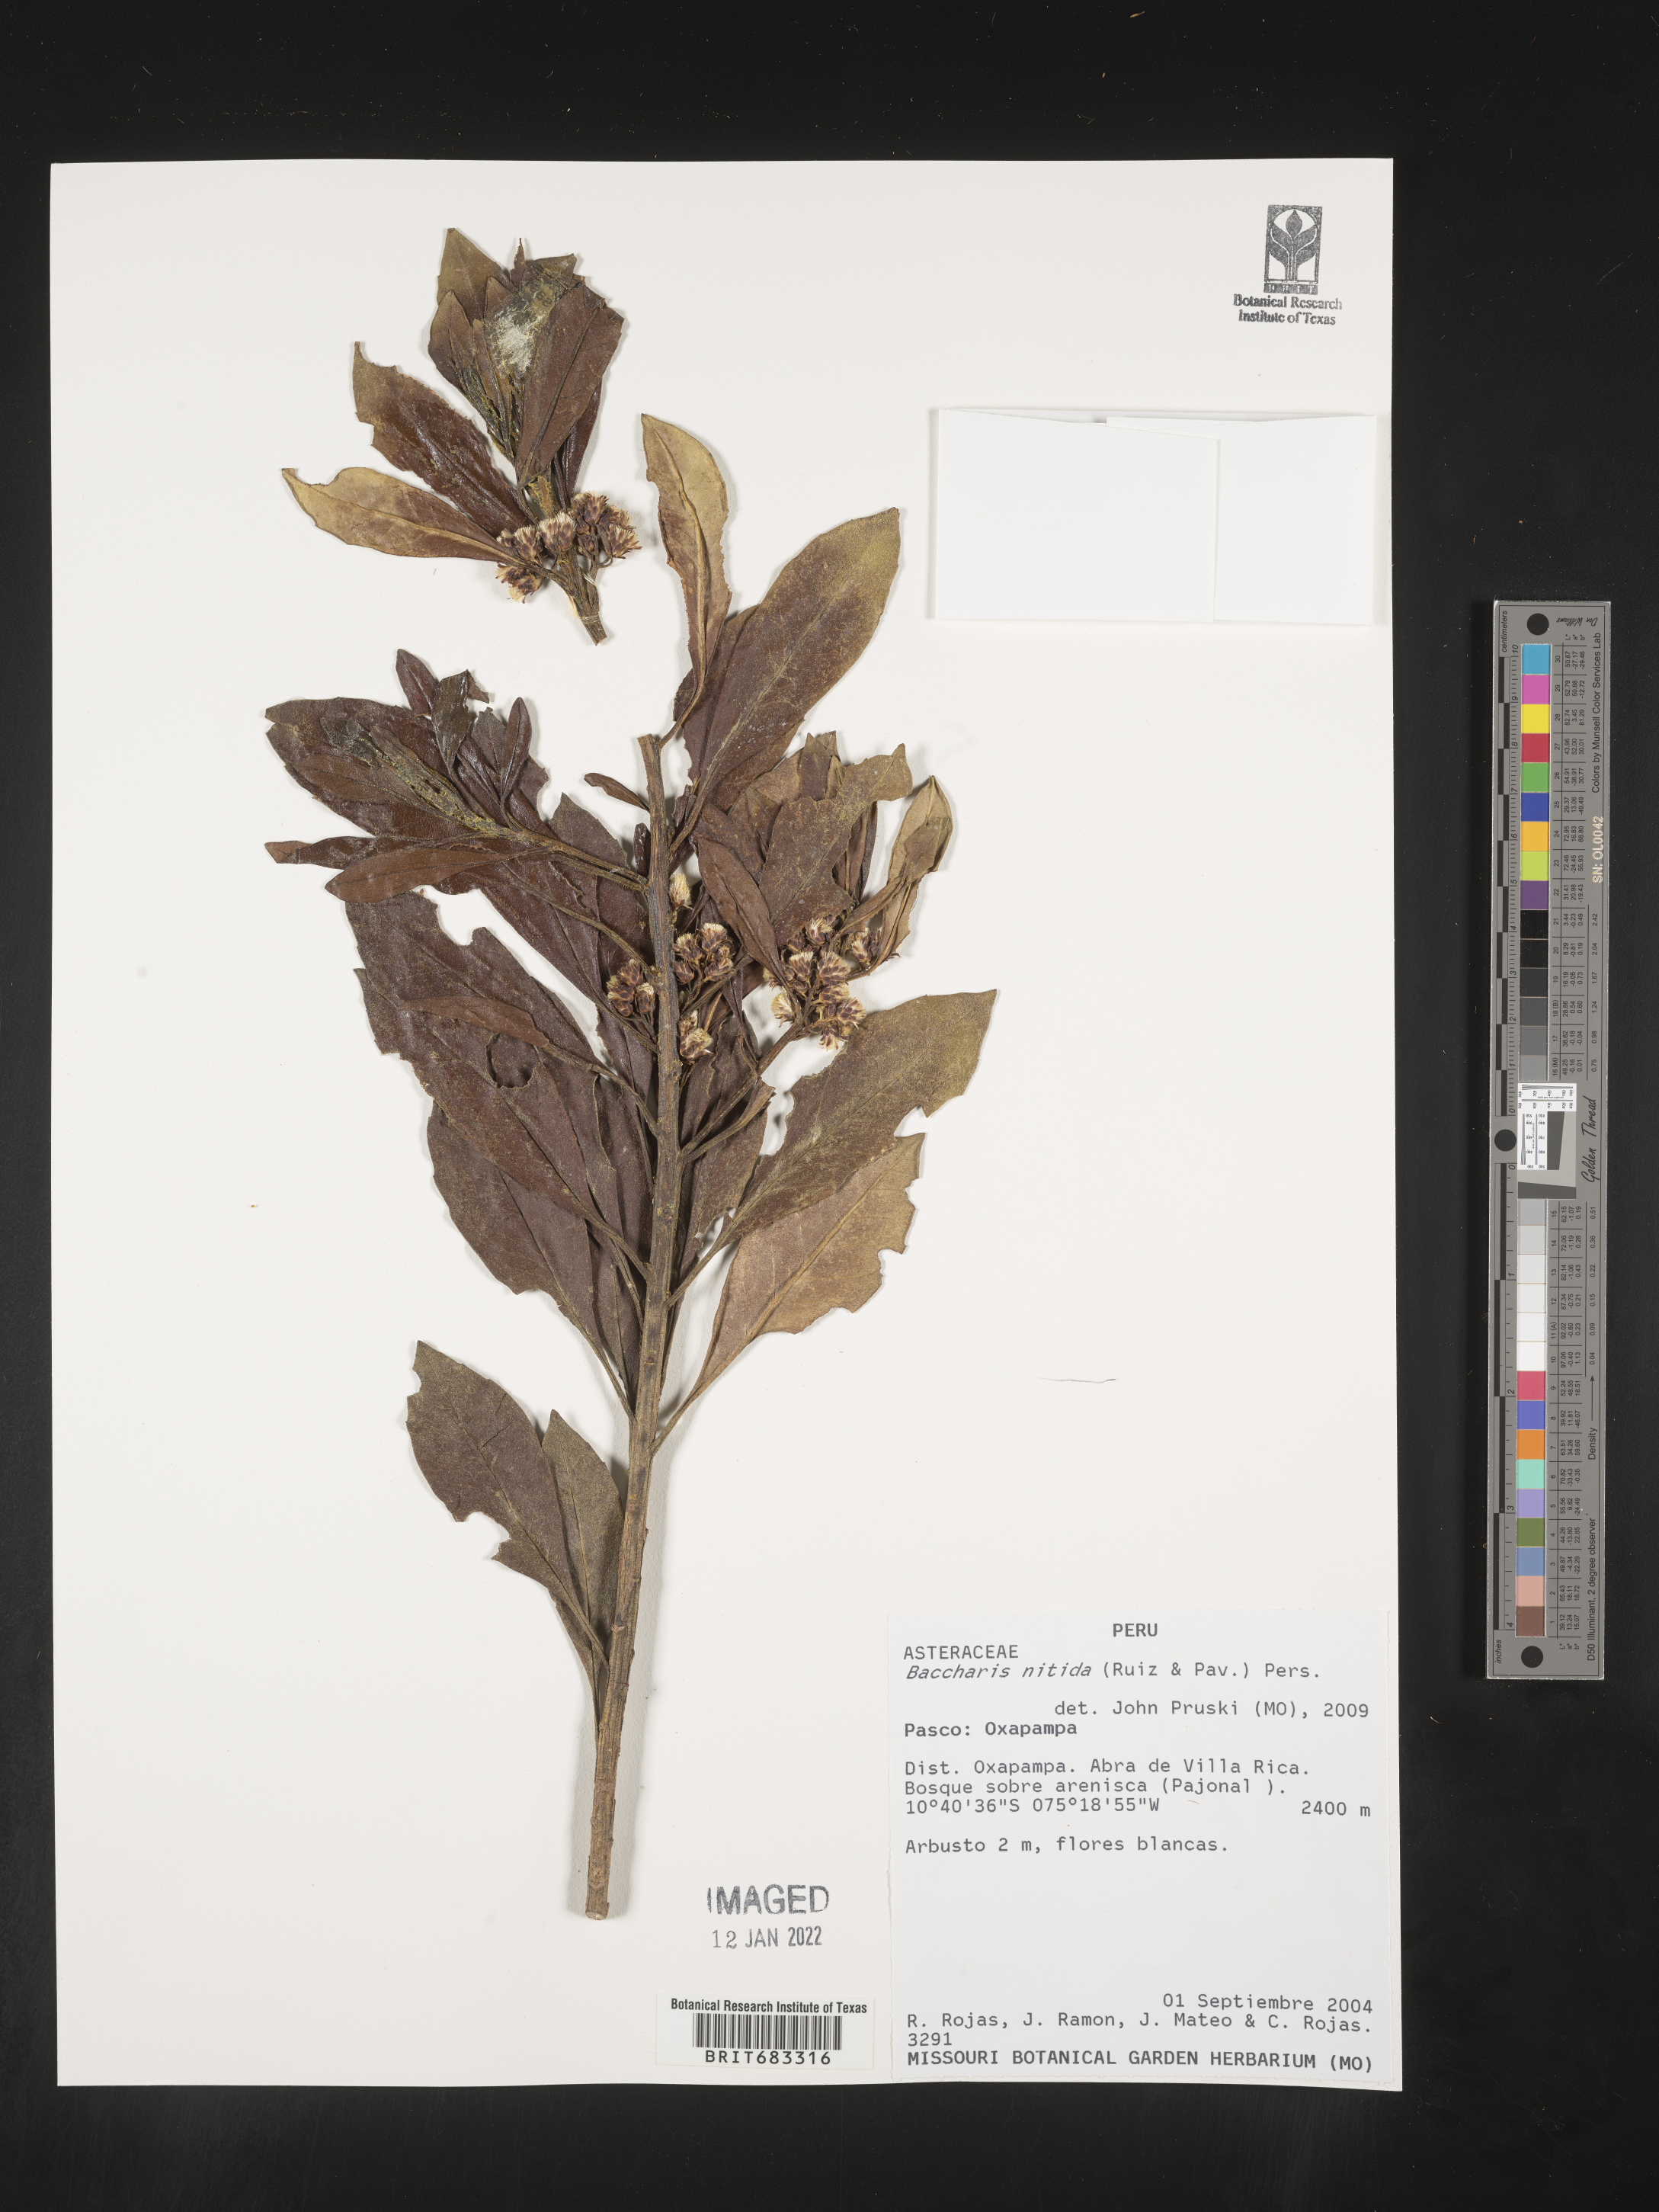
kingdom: Plantae
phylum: Tracheophyta
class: Magnoliopsida
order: Asterales
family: Asteraceae
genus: Baccharis
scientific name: Baccharis
